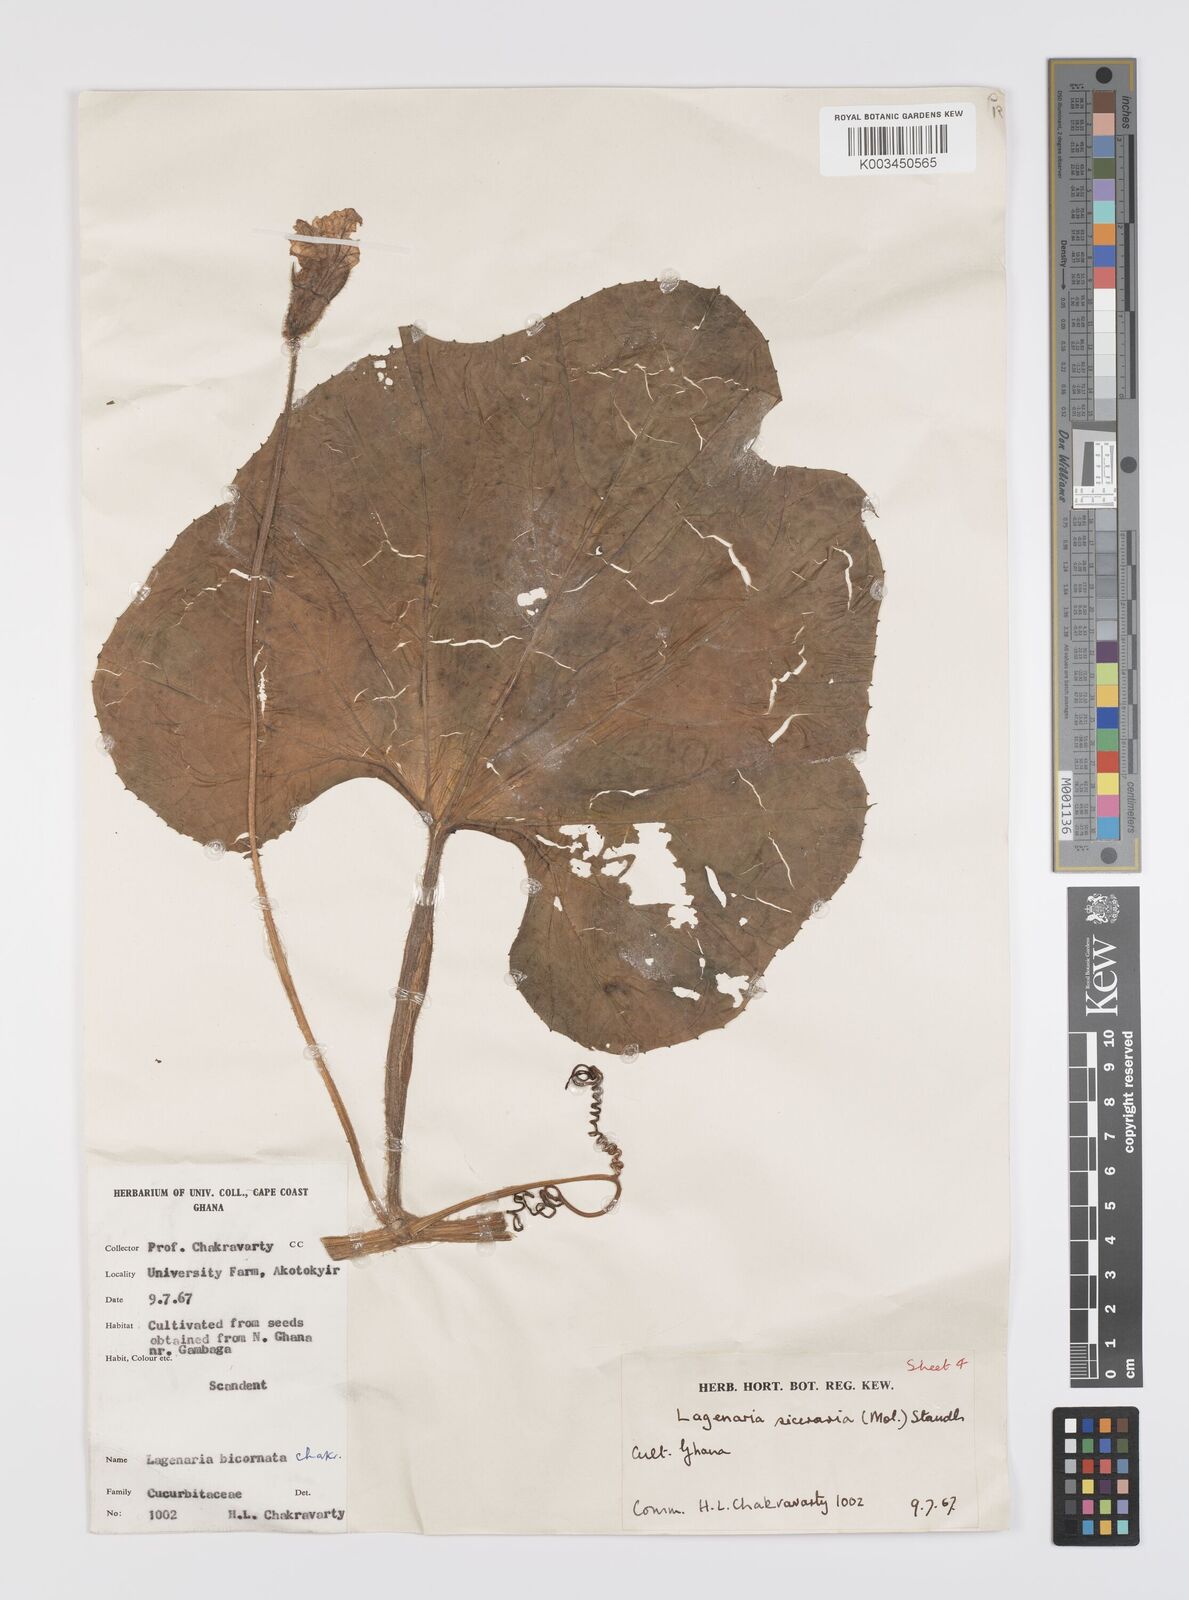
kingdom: Plantae
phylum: Tracheophyta
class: Magnoliopsida
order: Cucurbitales
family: Cucurbitaceae
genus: Lagenaria
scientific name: Lagenaria siceraria
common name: Bottle gourd
